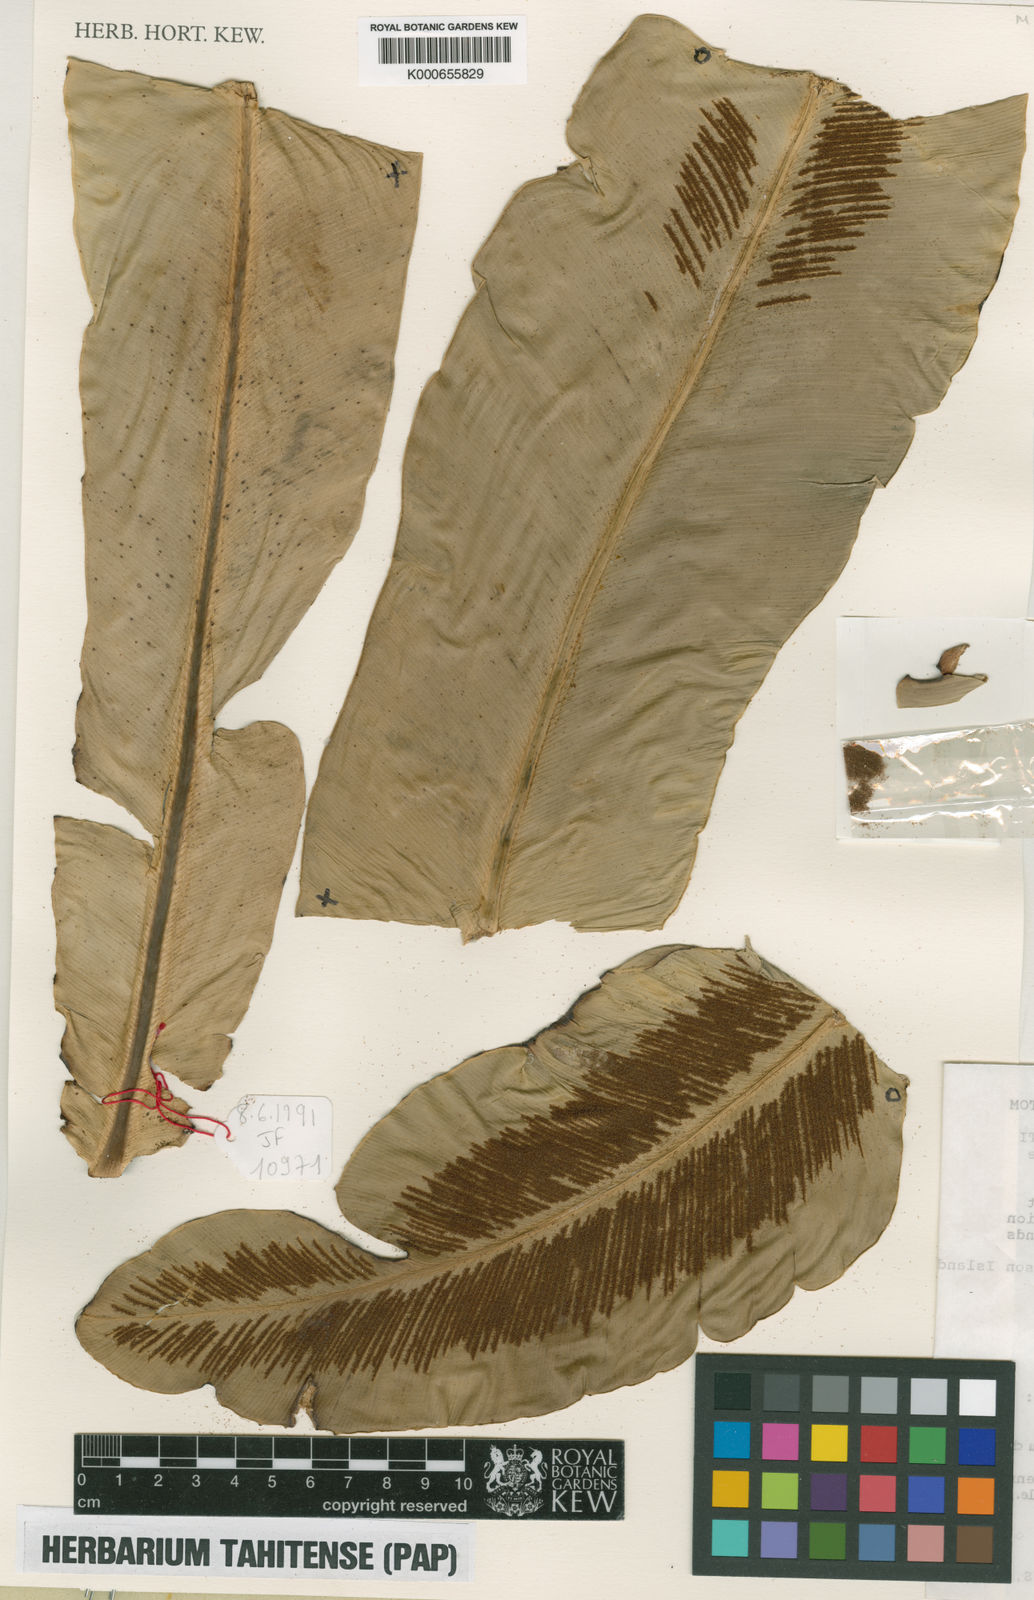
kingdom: Plantae
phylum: Tracheophyta
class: Polypodiopsida
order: Polypodiales
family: Aspleniaceae
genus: Asplenium
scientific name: Asplenium
